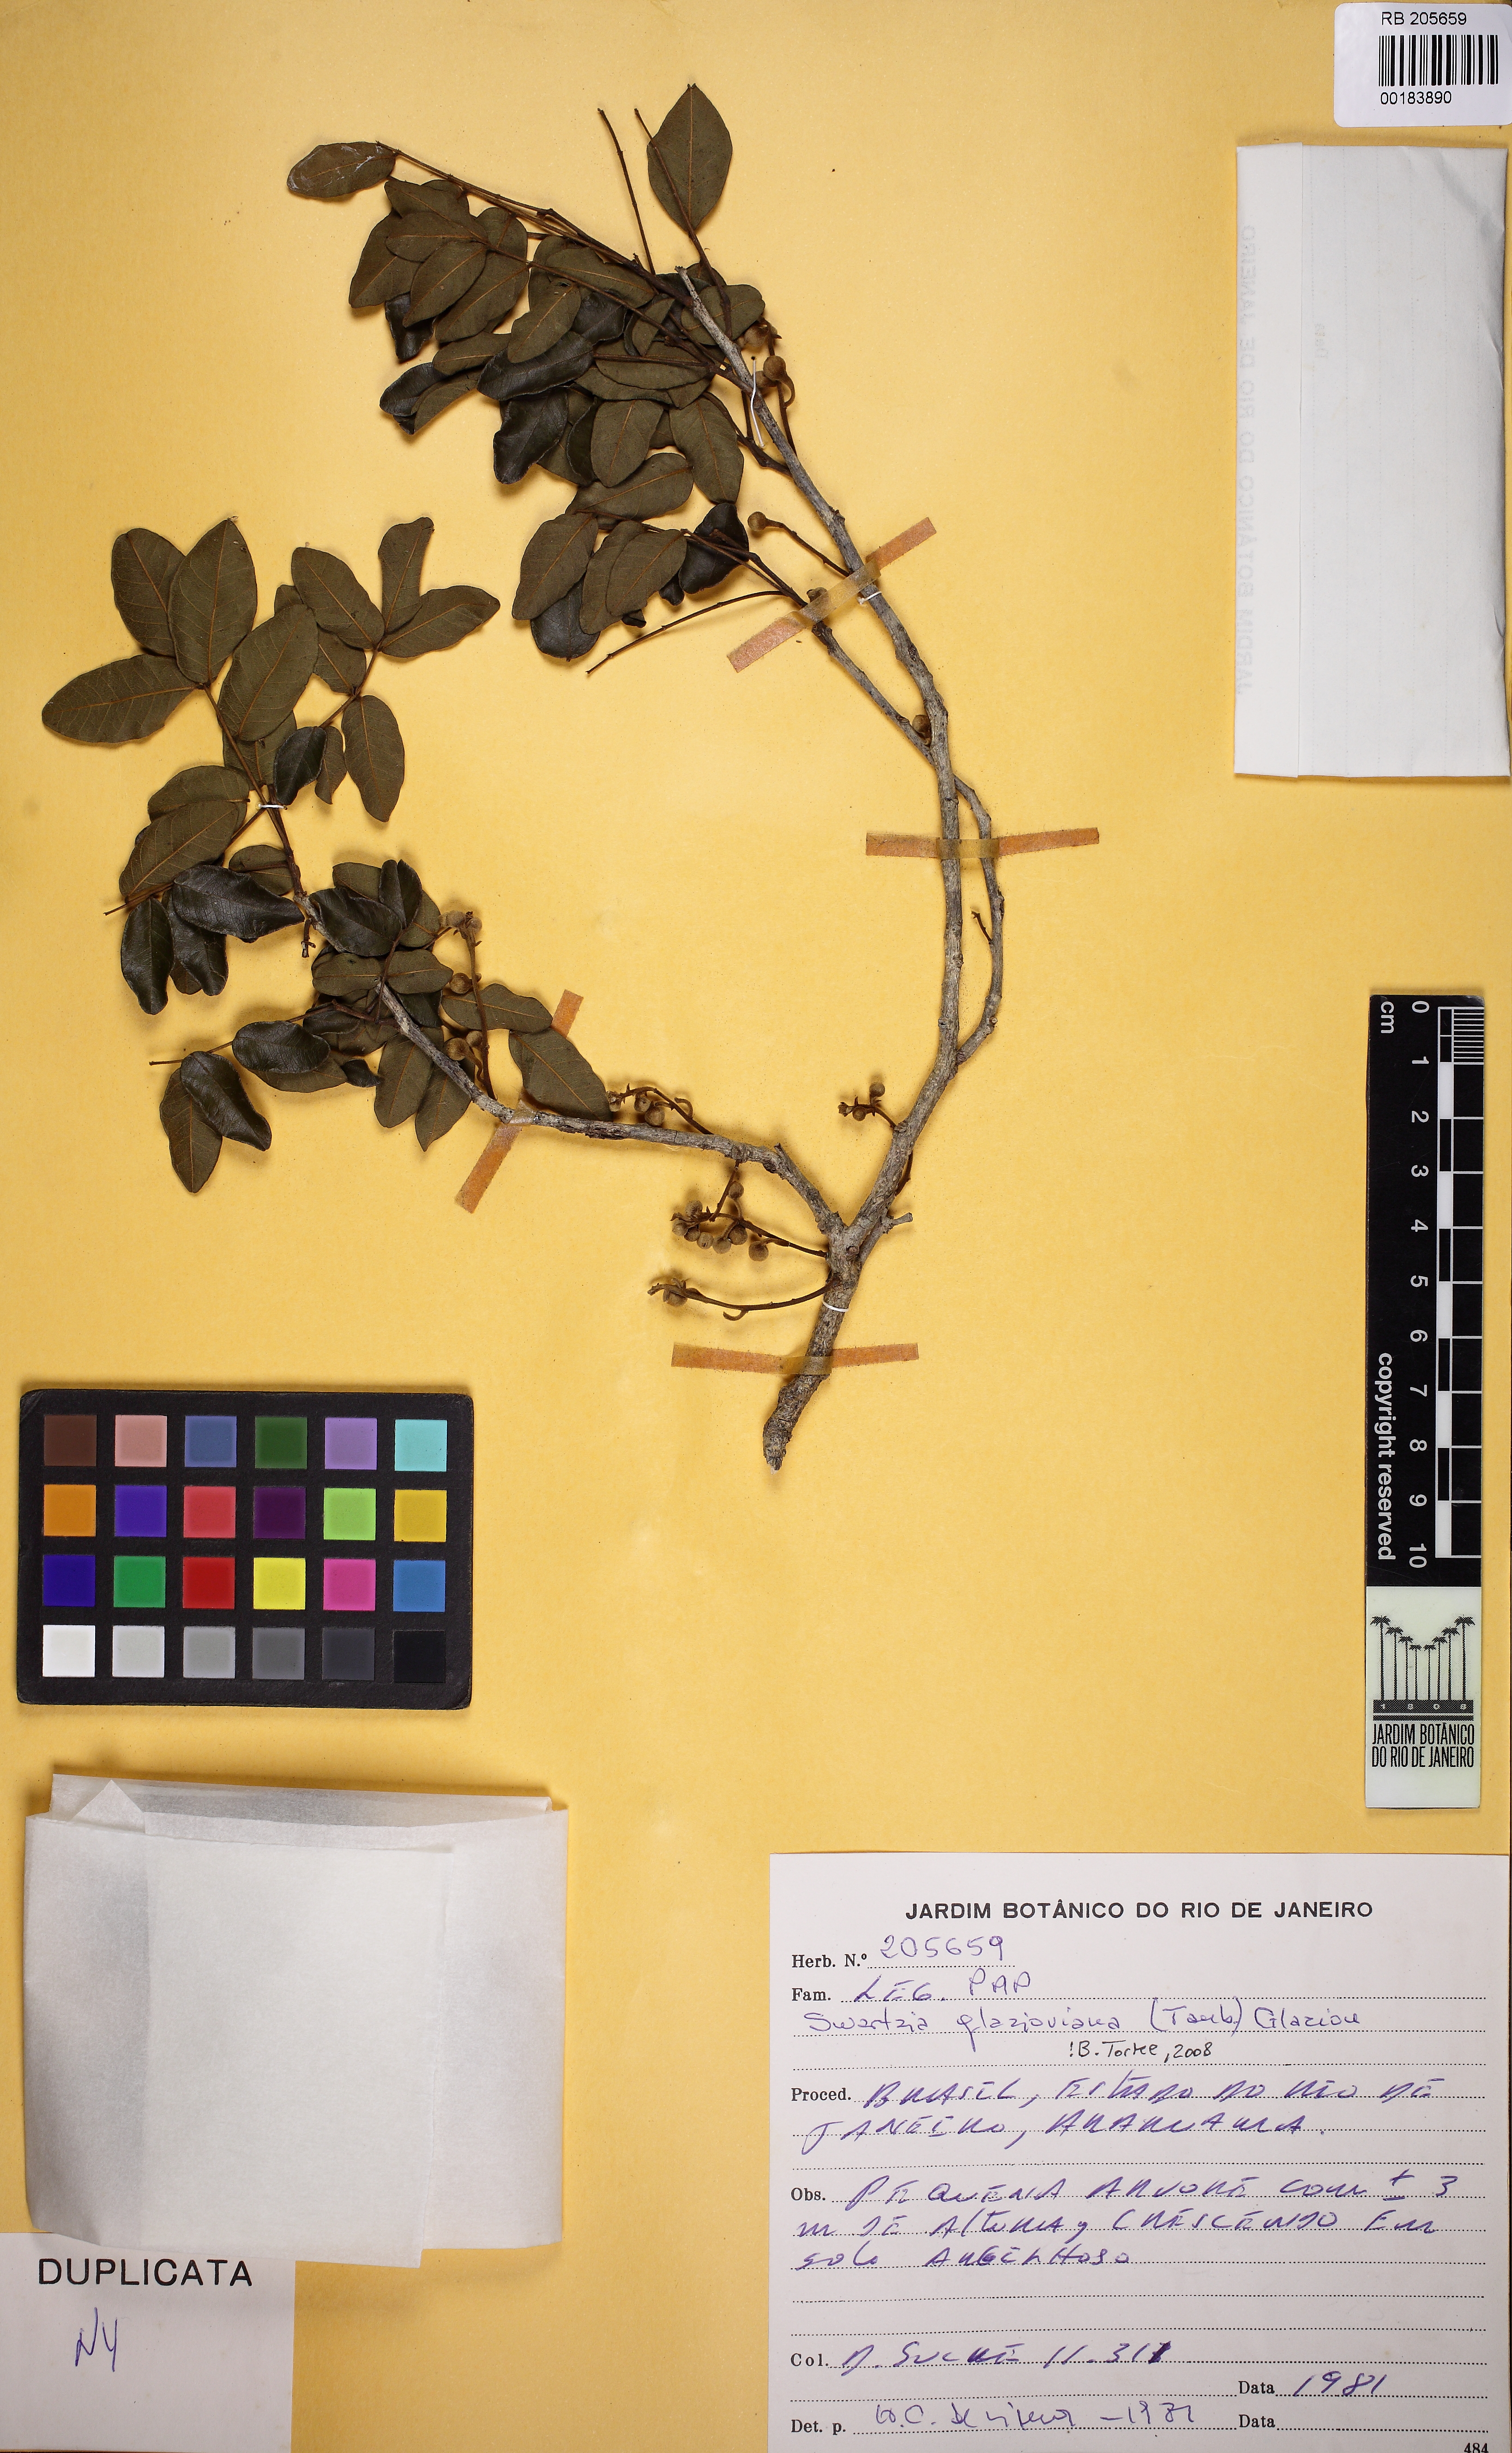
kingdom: Plantae
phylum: Tracheophyta
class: Magnoliopsida
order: Fabales
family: Fabaceae
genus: Swartzia
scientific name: Swartzia glazioviana
